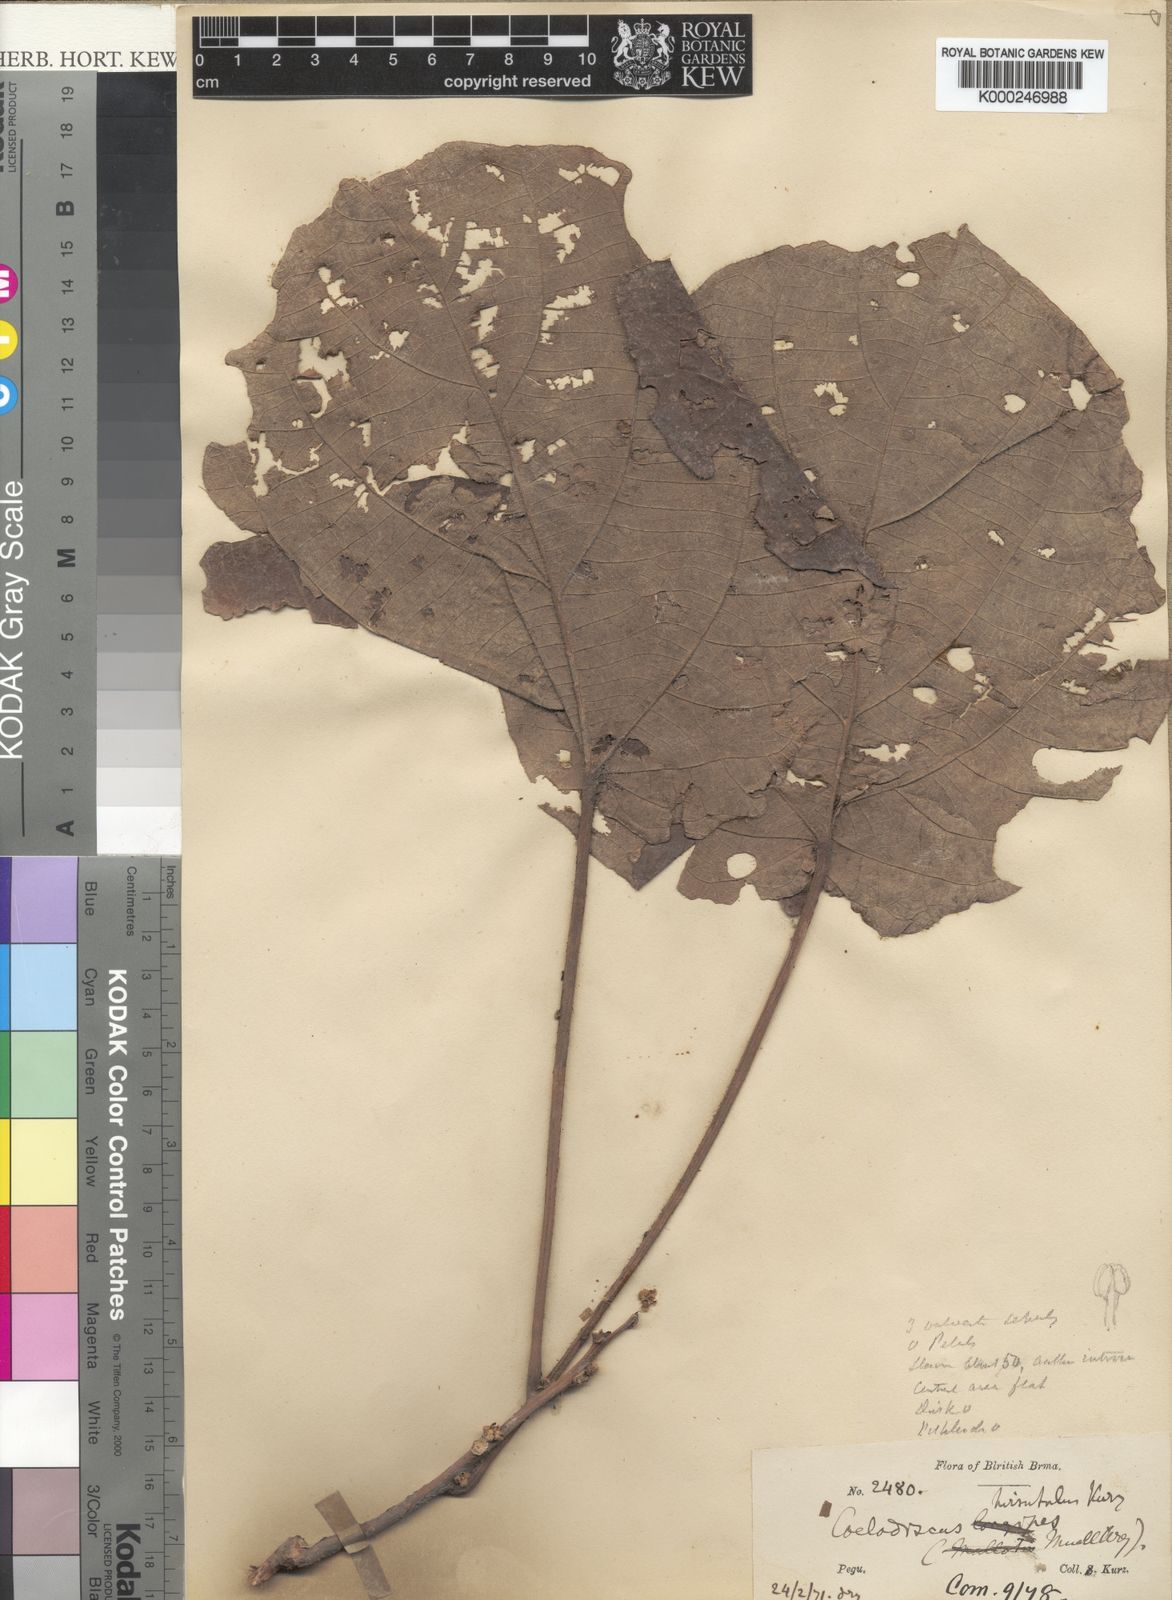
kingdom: Plantae
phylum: Tracheophyta
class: Magnoliopsida
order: Malpighiales
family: Euphorbiaceae
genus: Mallotus
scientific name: Mallotus longipes
